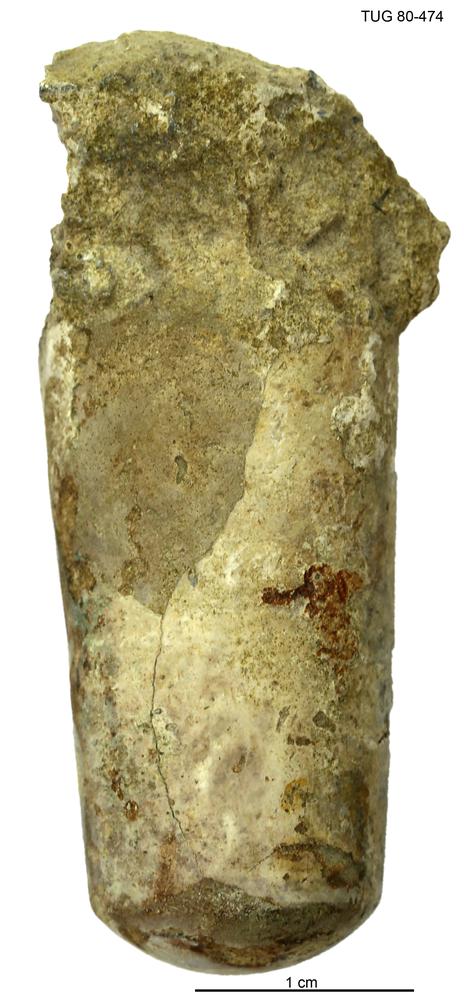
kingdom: Animalia
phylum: Mollusca
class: Cephalopoda
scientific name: Cephalopoda
